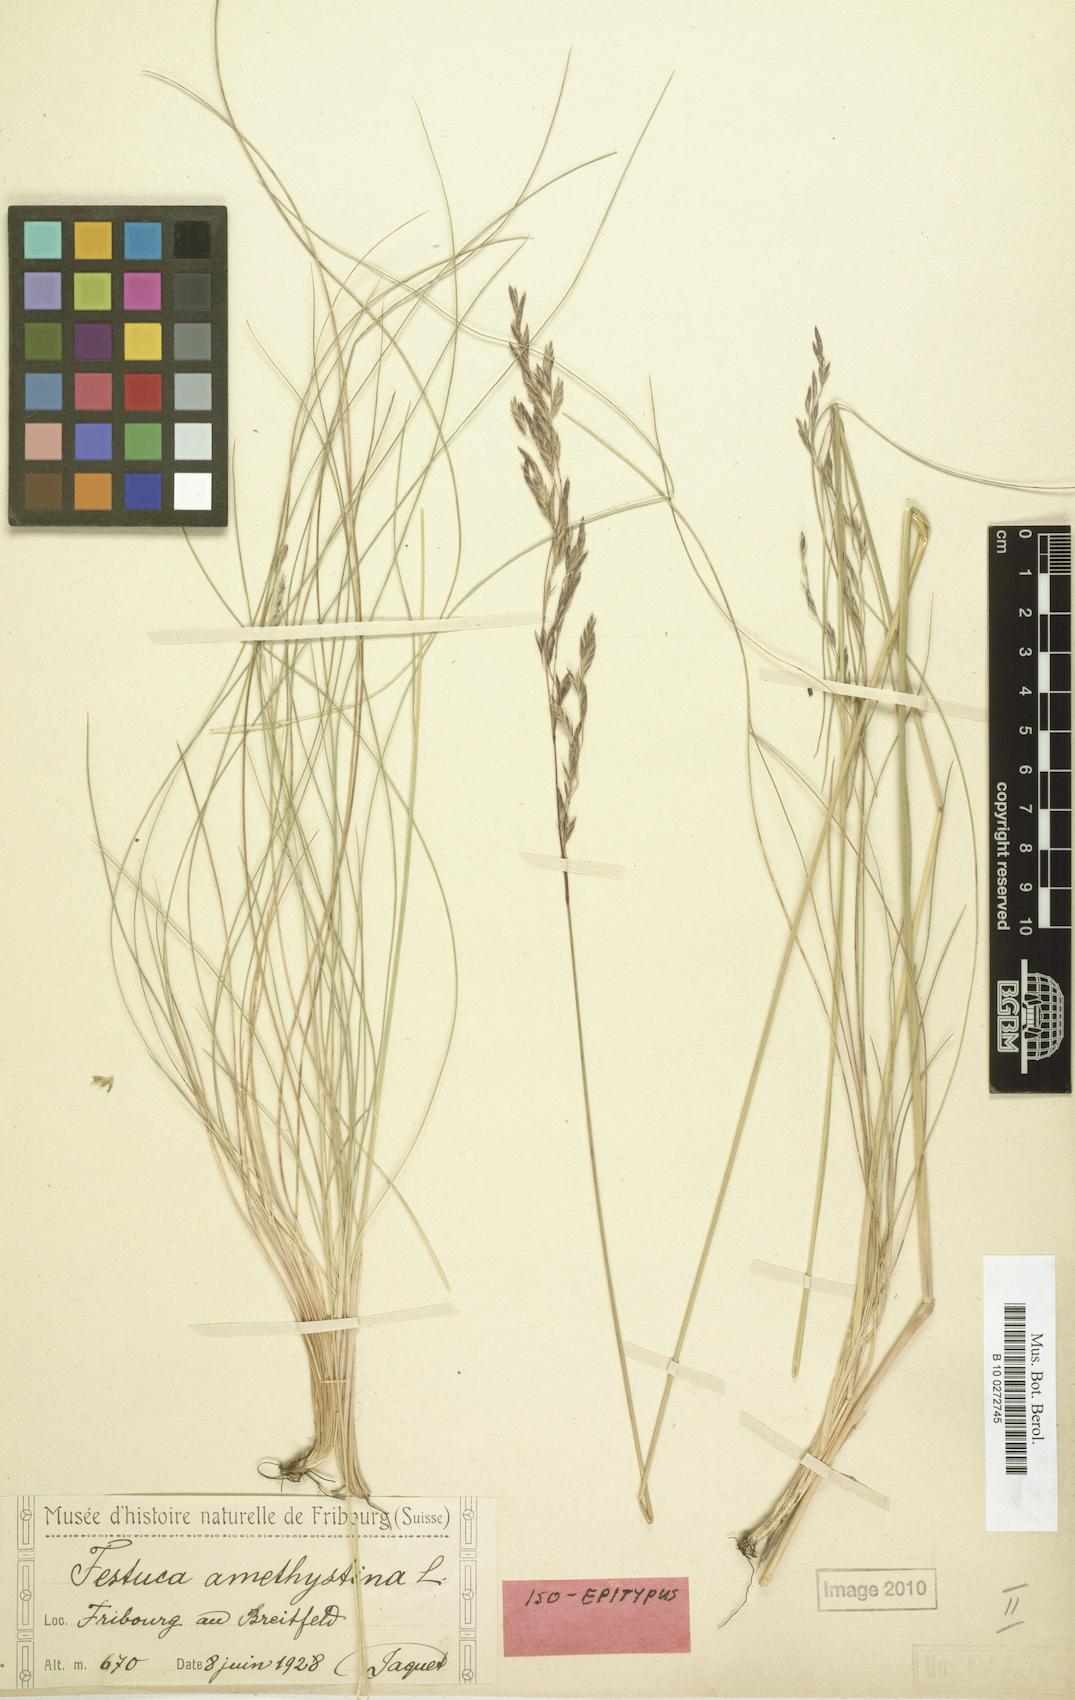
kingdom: Plantae
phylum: Tracheophyta
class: Liliopsida
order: Poales
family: Poaceae
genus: Festuca
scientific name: Festuca amethystina
